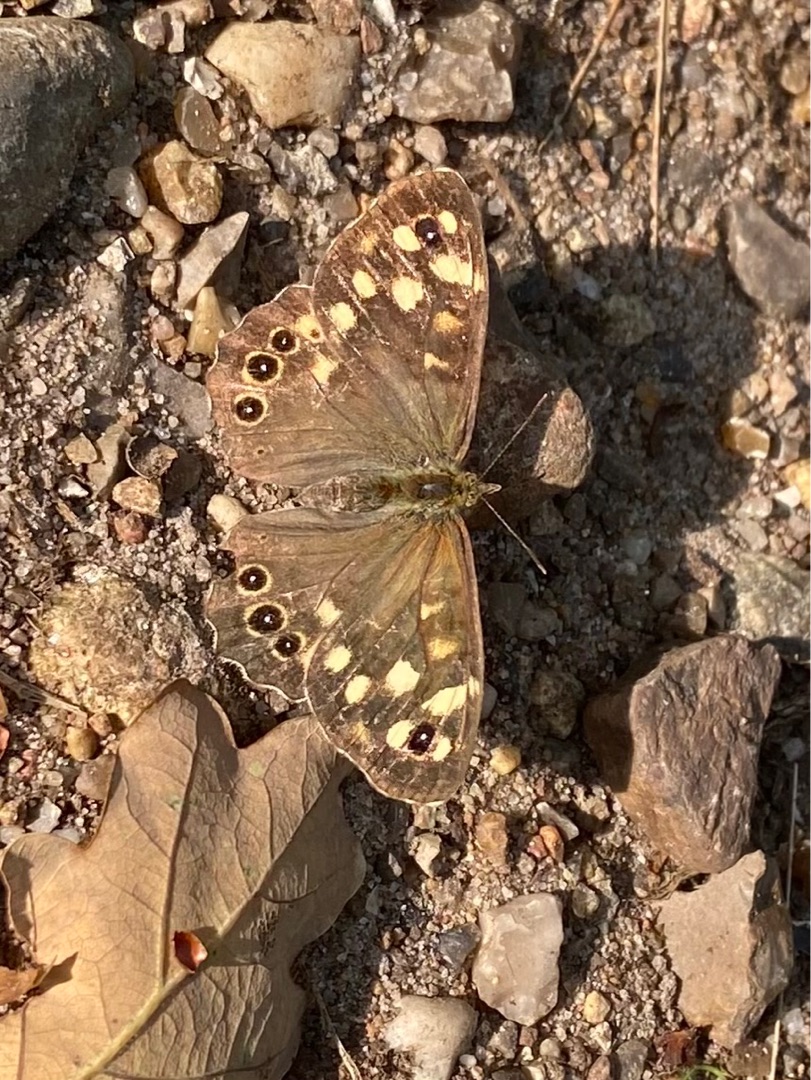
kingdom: Animalia
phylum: Arthropoda
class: Insecta
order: Lepidoptera
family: Nymphalidae
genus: Pararge
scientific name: Pararge aegeria
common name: Skovrandøje
